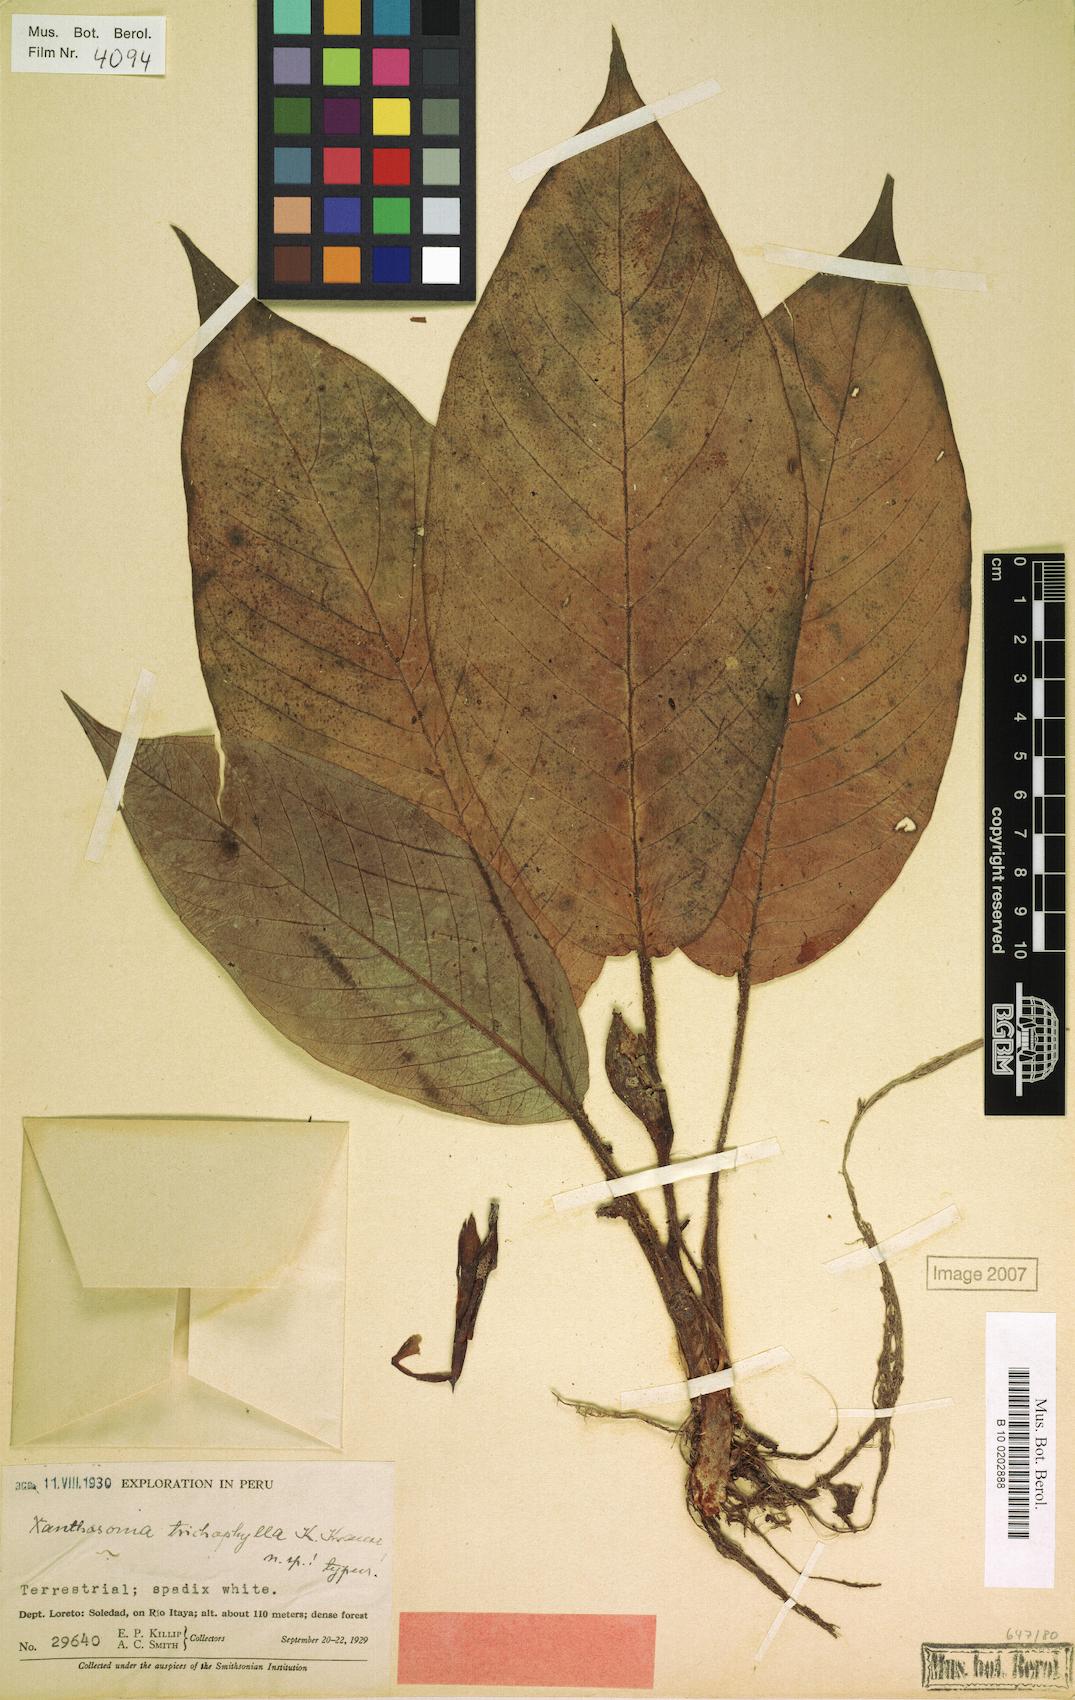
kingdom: Plantae
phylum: Tracheophyta
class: Liliopsida
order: Alismatales
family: Araceae
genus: Xanthosoma
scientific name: Xanthosoma trichophyllum
